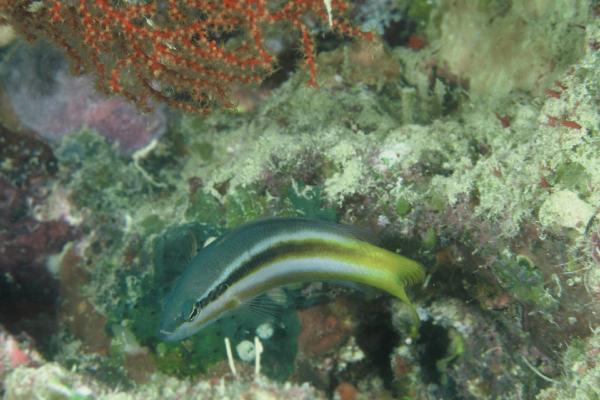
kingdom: Animalia
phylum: Chordata
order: Perciformes
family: Pseudochromidae
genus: Pseudochromis
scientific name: Pseudochromis dixurus
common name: Forktail dottyback
